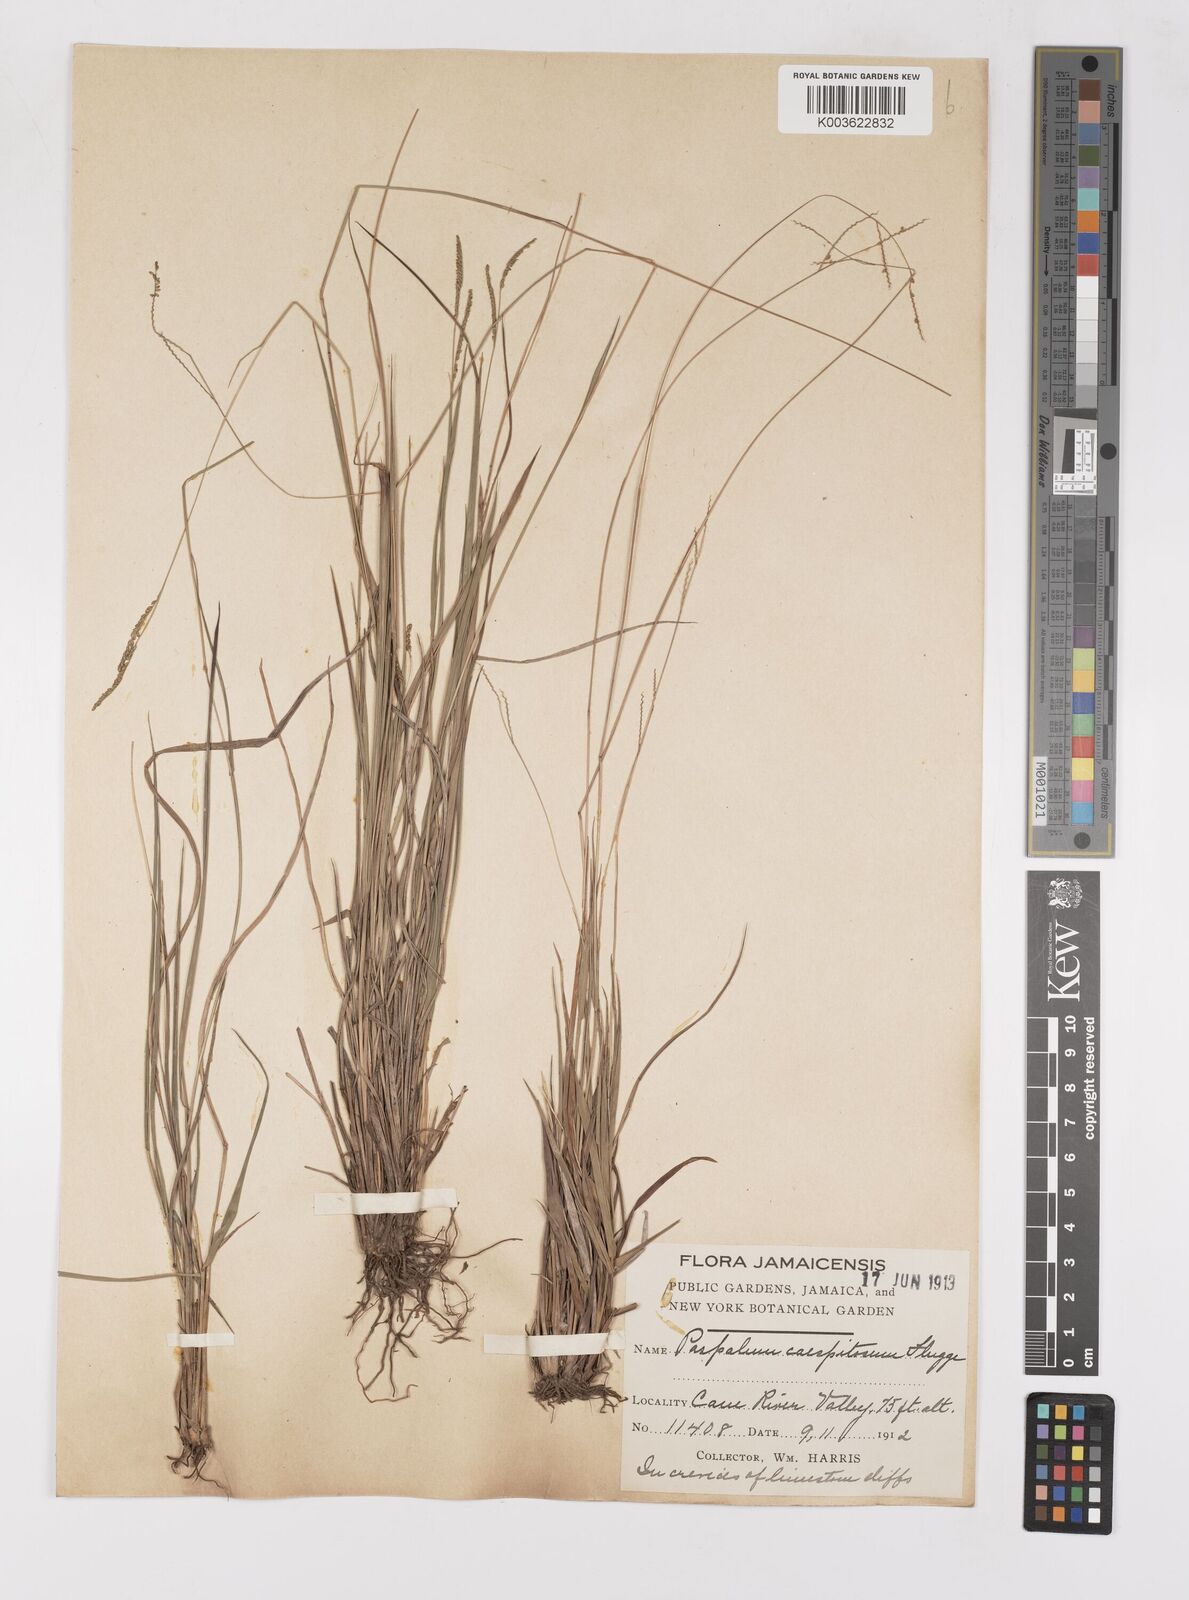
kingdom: Plantae
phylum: Tracheophyta
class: Liliopsida
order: Poales
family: Poaceae
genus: Paspalum
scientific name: Paspalum caespitosum
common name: Blue crowngrass
